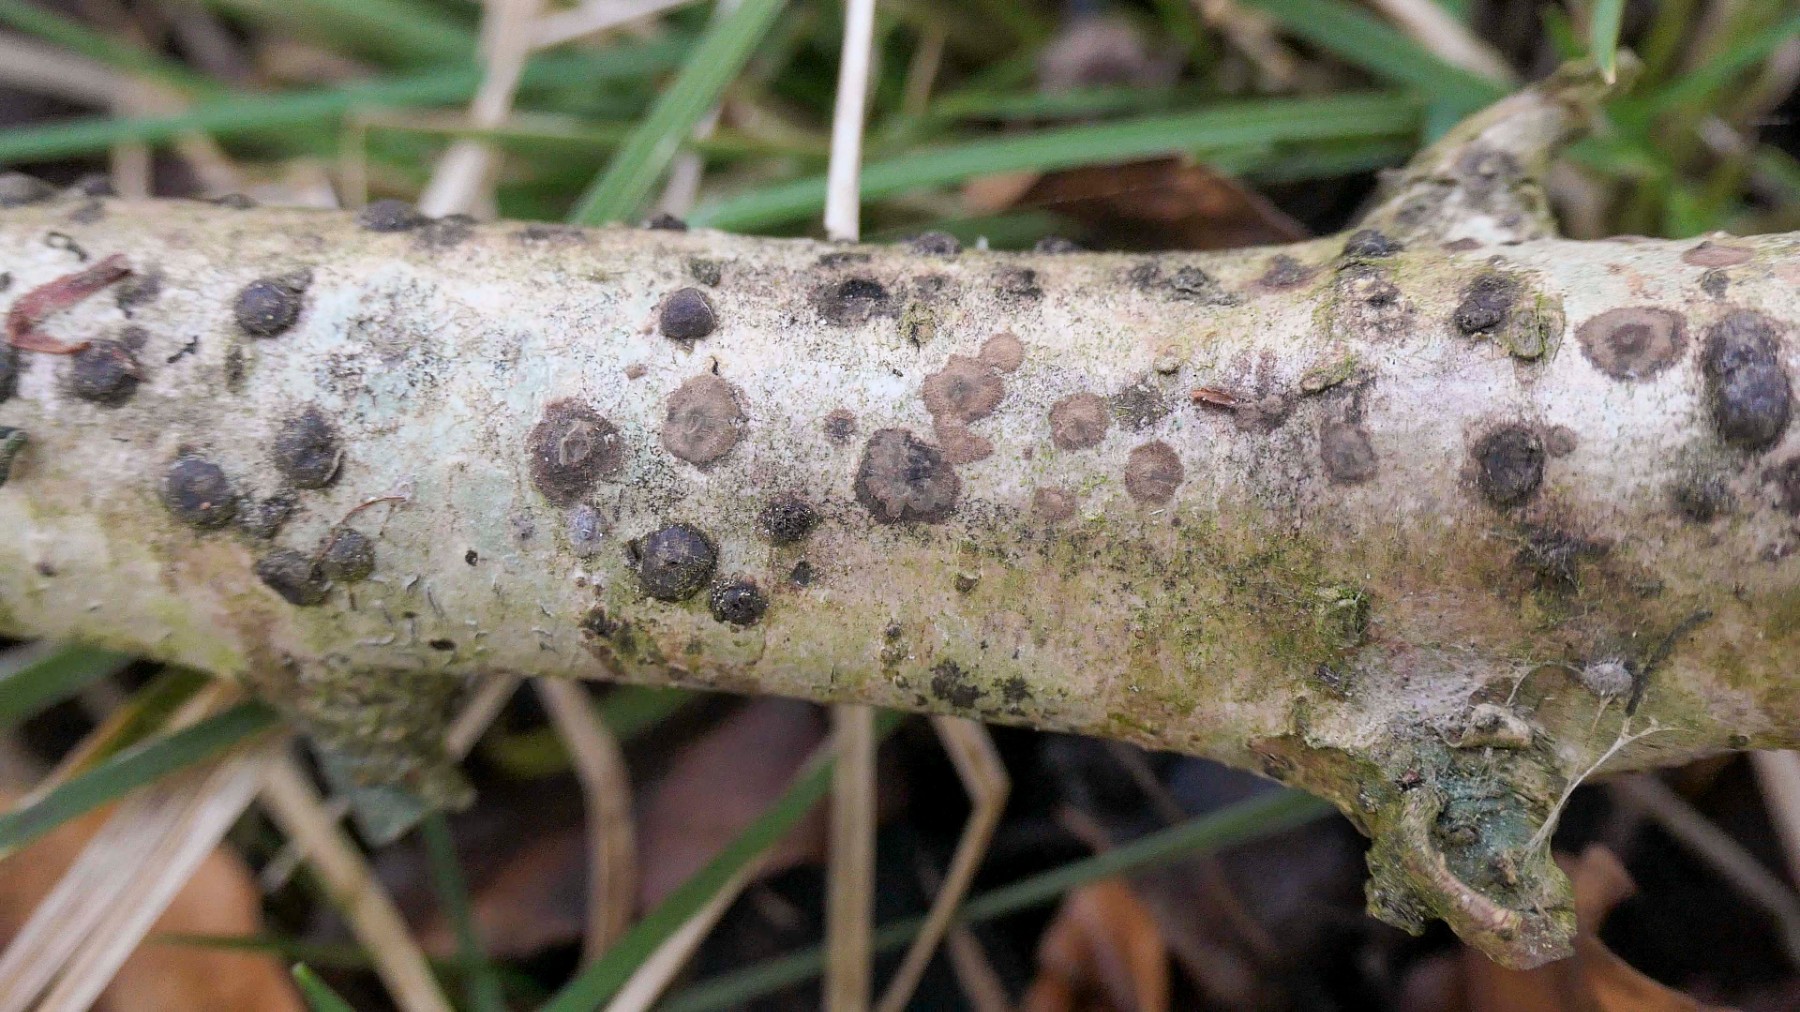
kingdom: Fungi
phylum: Ascomycota
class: Sordariomycetes
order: Xylariales
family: Hypoxylaceae
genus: Hypoxylon
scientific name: Hypoxylon fuscum
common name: kegleformet kulbær
